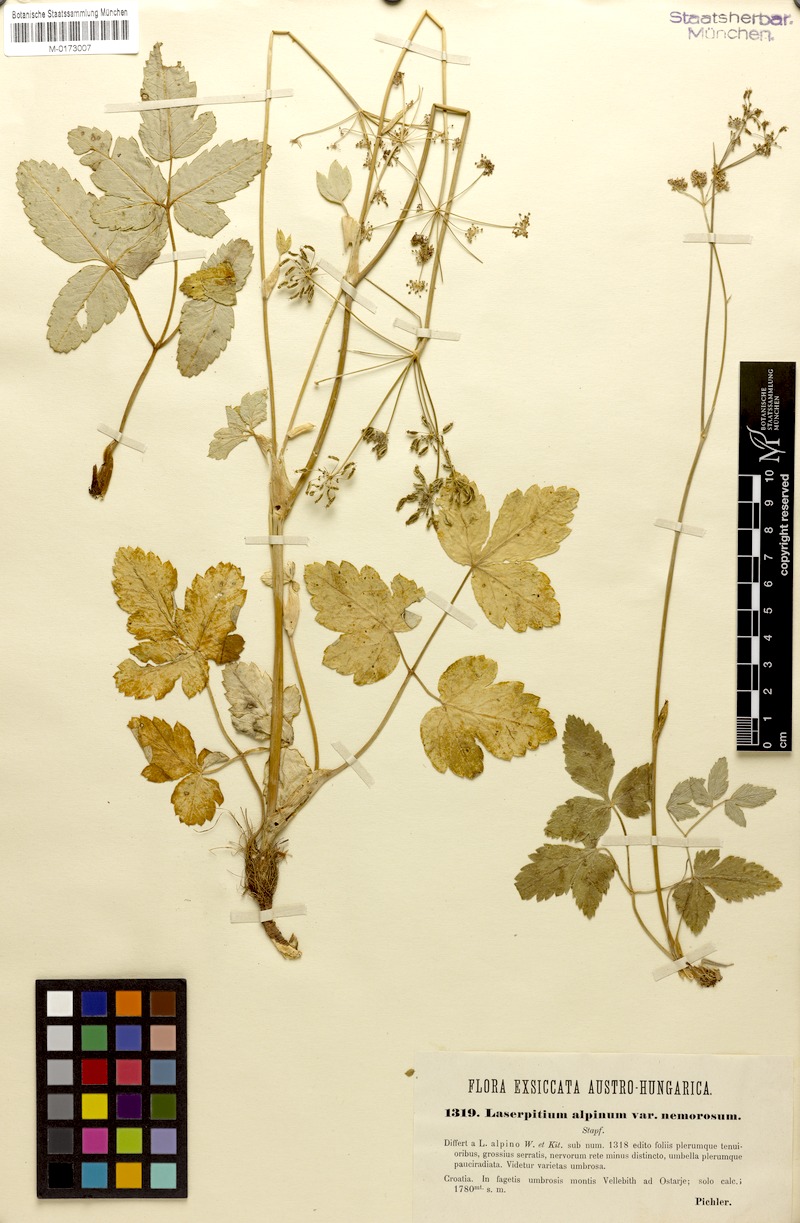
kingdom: Plantae
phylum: Tracheophyta
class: Magnoliopsida
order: Apiales
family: Apiaceae
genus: Laserpitium
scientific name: Laserpitium krapffii
